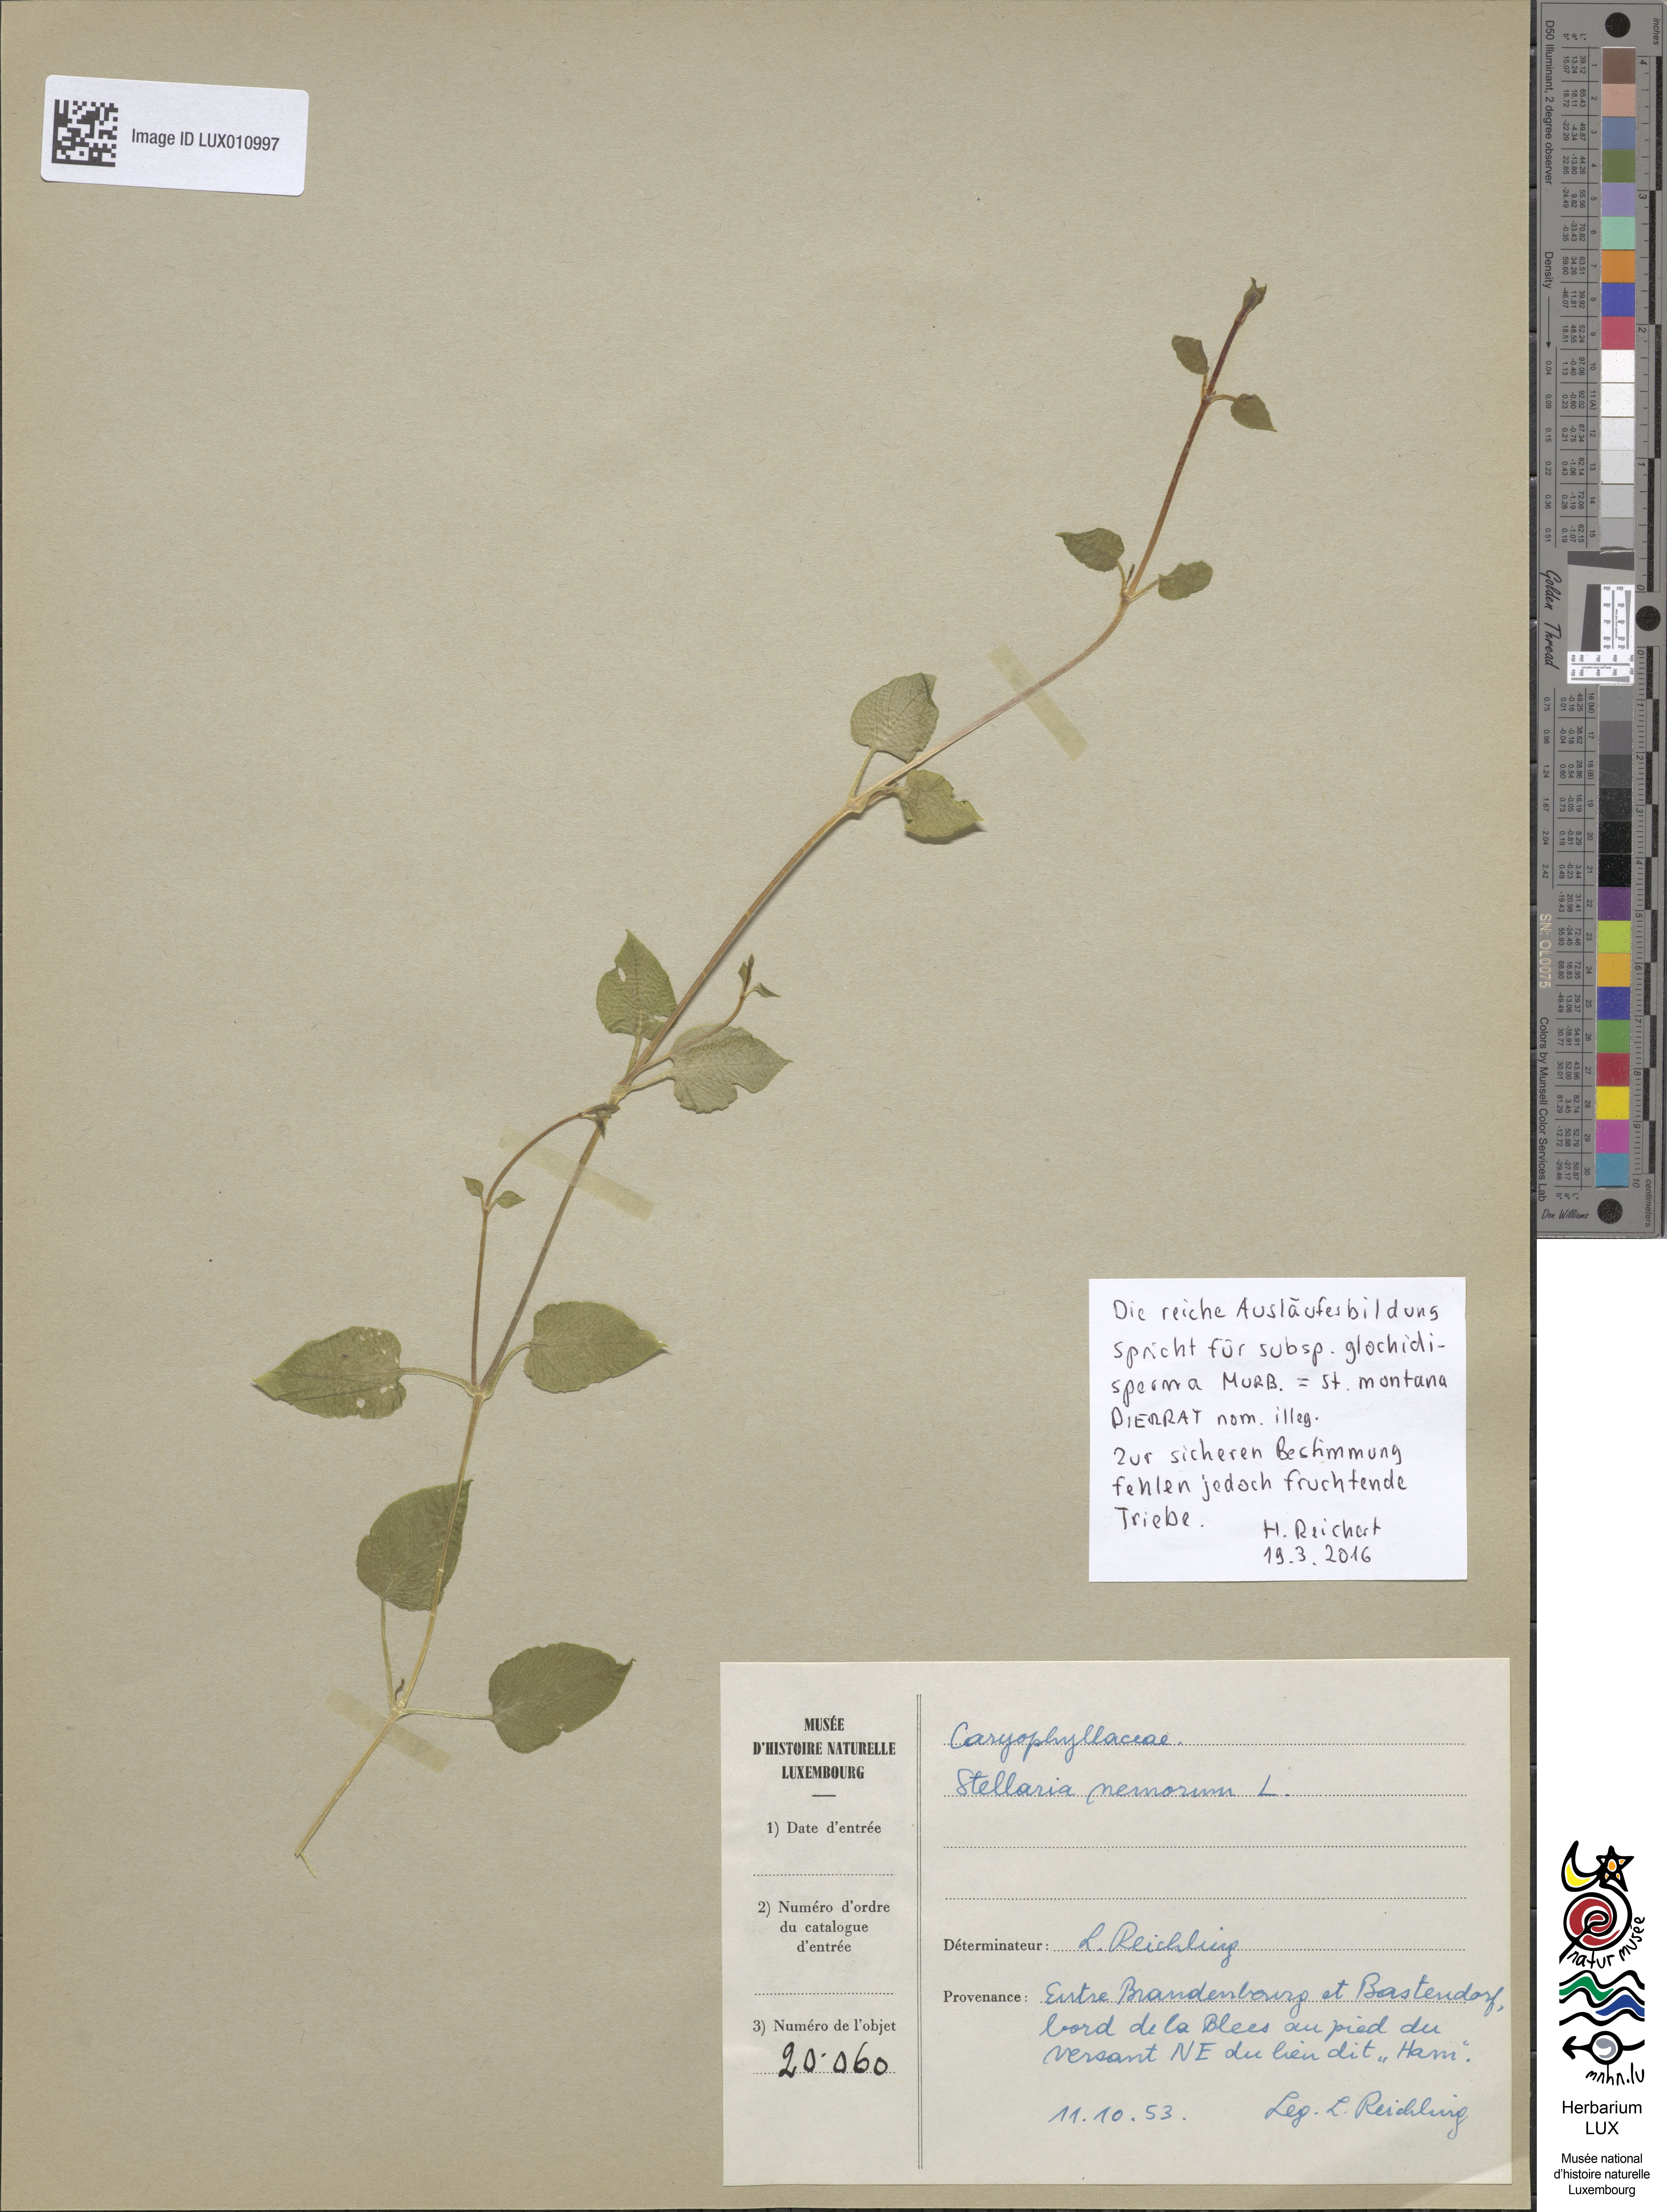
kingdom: Plantae
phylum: Tracheophyta
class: Magnoliopsida
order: Caryophyllales
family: Caryophyllaceae
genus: Stellaria
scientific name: Stellaria nemorum
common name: Wood stitchwort
